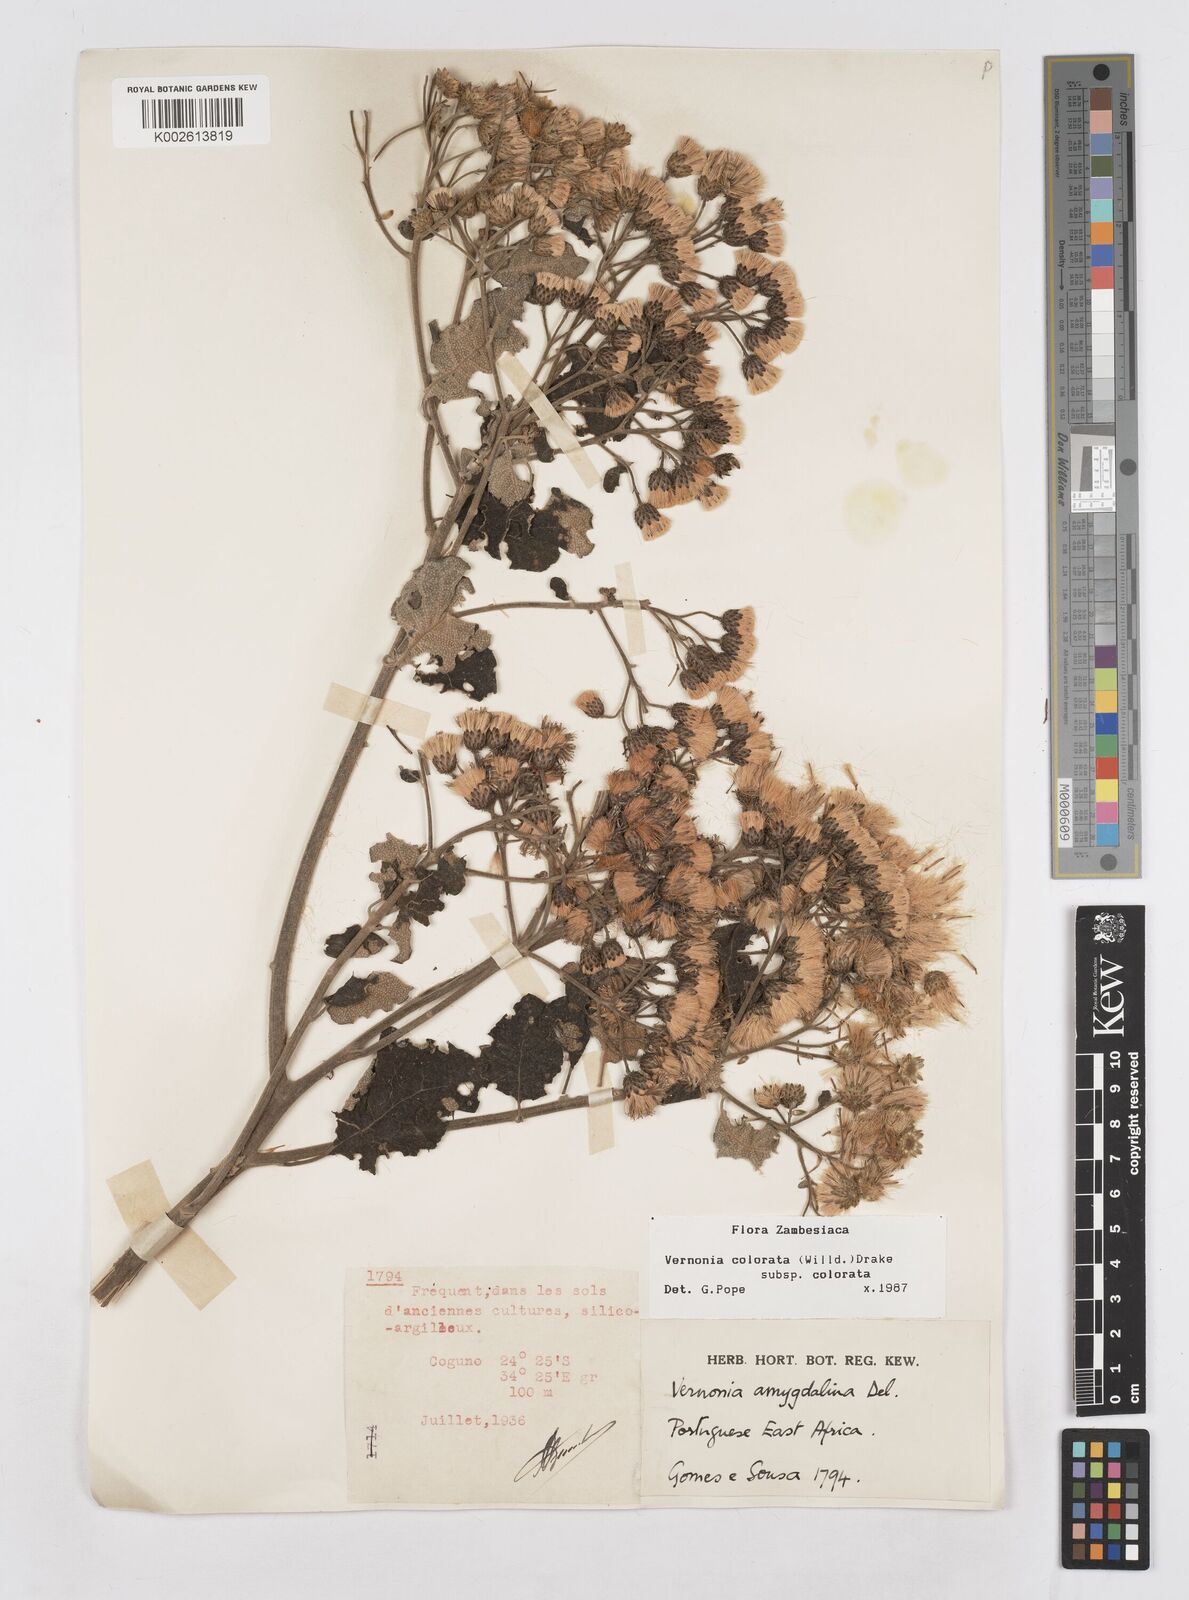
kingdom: Plantae
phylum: Tracheophyta
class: Magnoliopsida
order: Asterales
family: Asteraceae
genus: Vernonia
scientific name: Vernonia colorata
